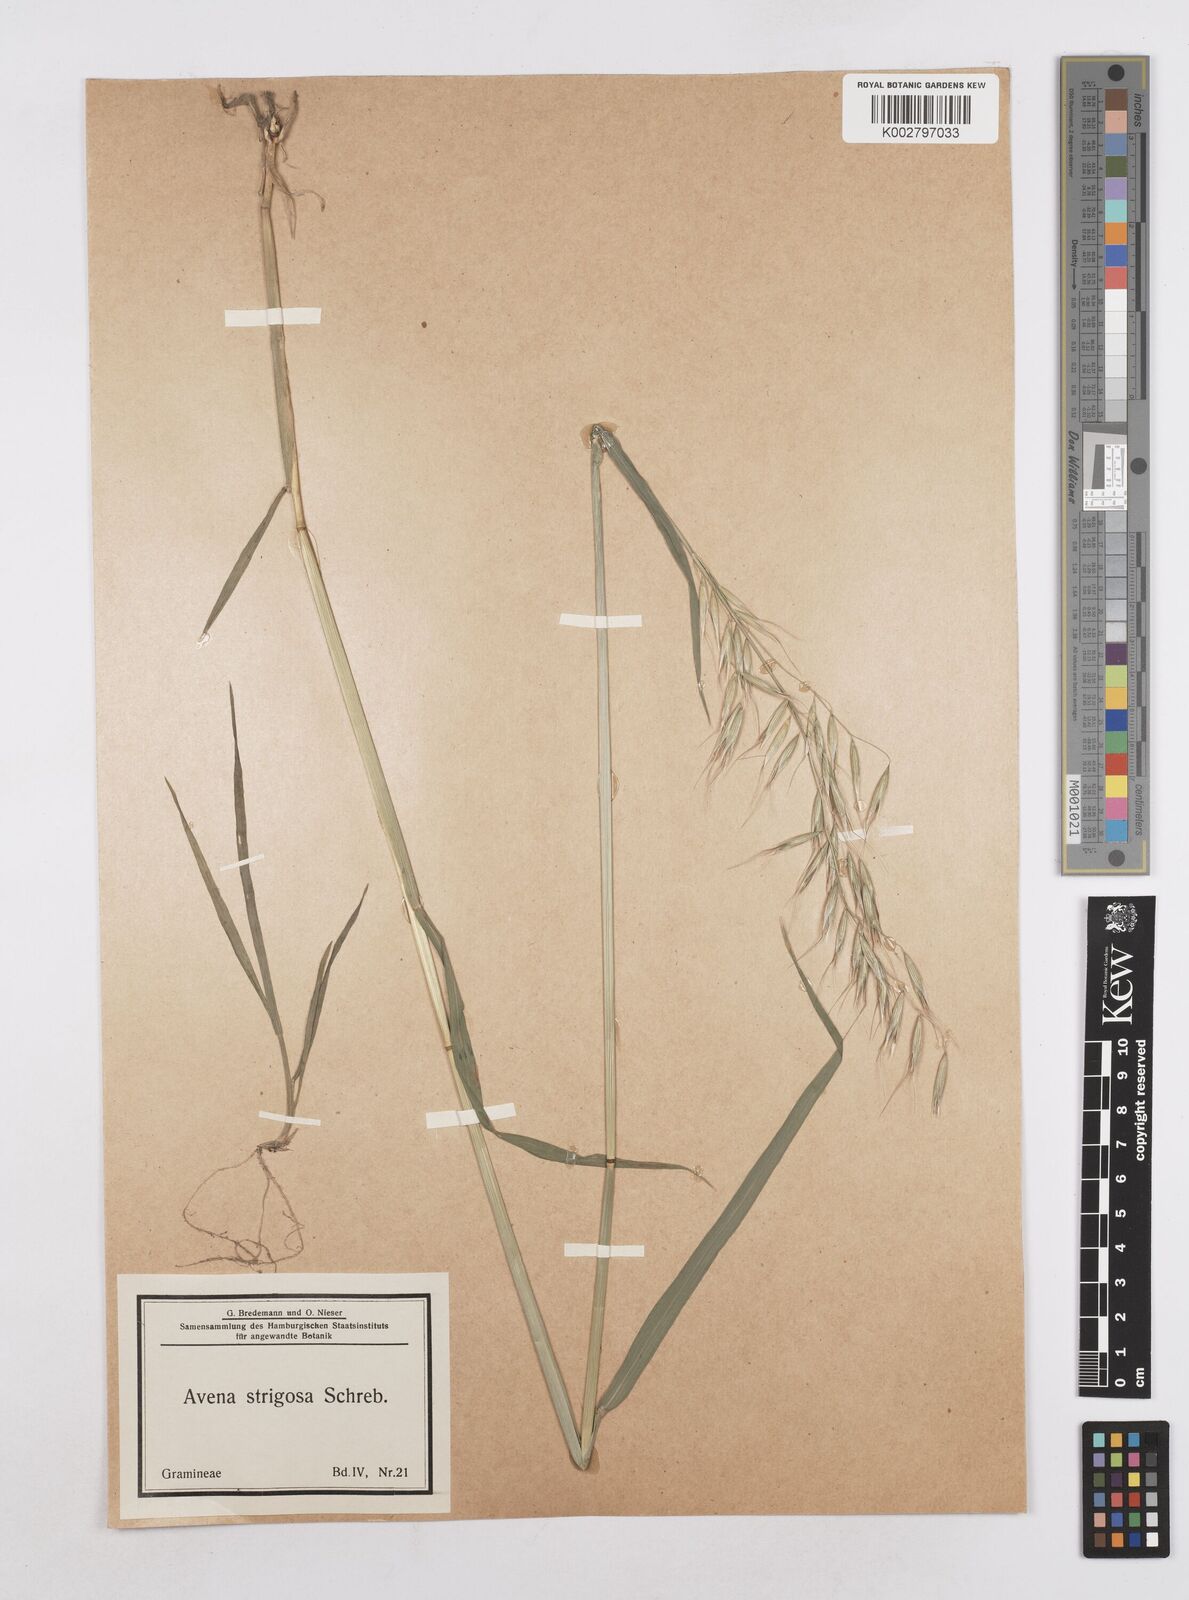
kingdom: Plantae
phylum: Tracheophyta
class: Liliopsida
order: Poales
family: Poaceae
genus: Avena
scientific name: Avena strigosa
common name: Bristle oat
